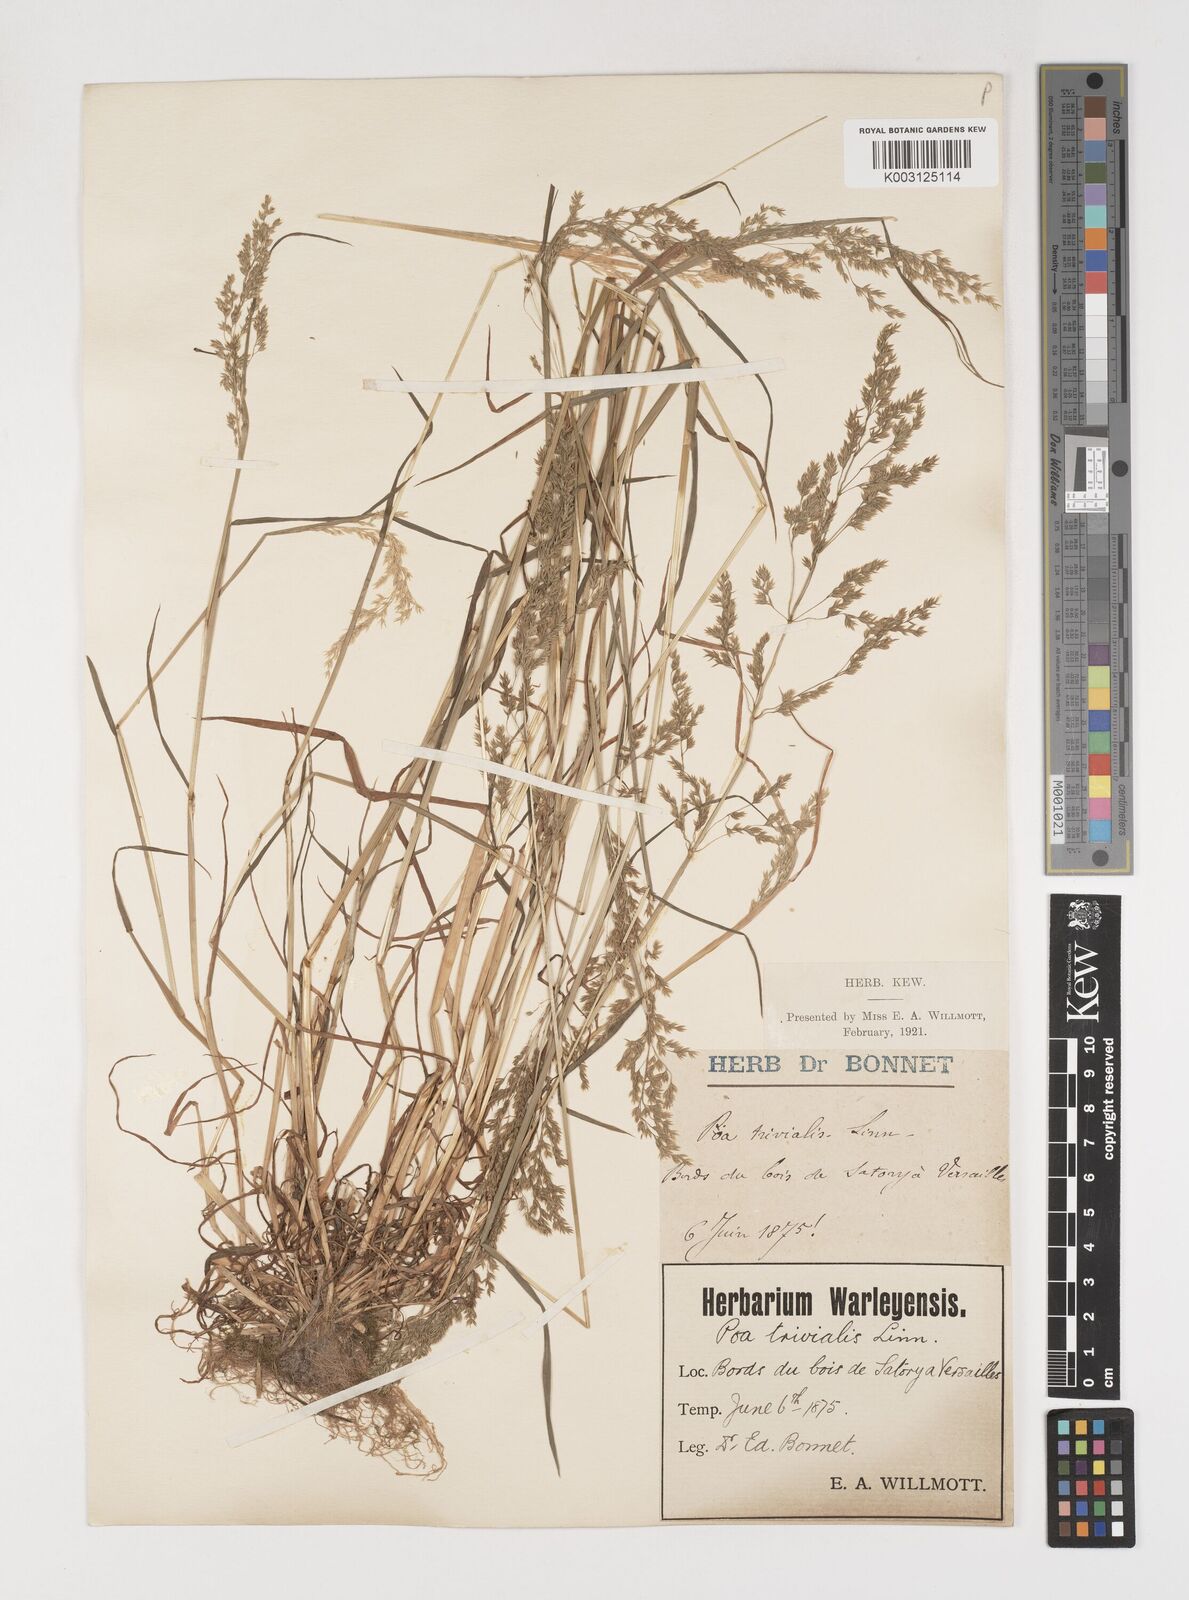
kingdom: Plantae
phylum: Tracheophyta
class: Liliopsida
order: Poales
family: Poaceae
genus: Poa
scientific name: Poa trivialis
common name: Rough bluegrass
